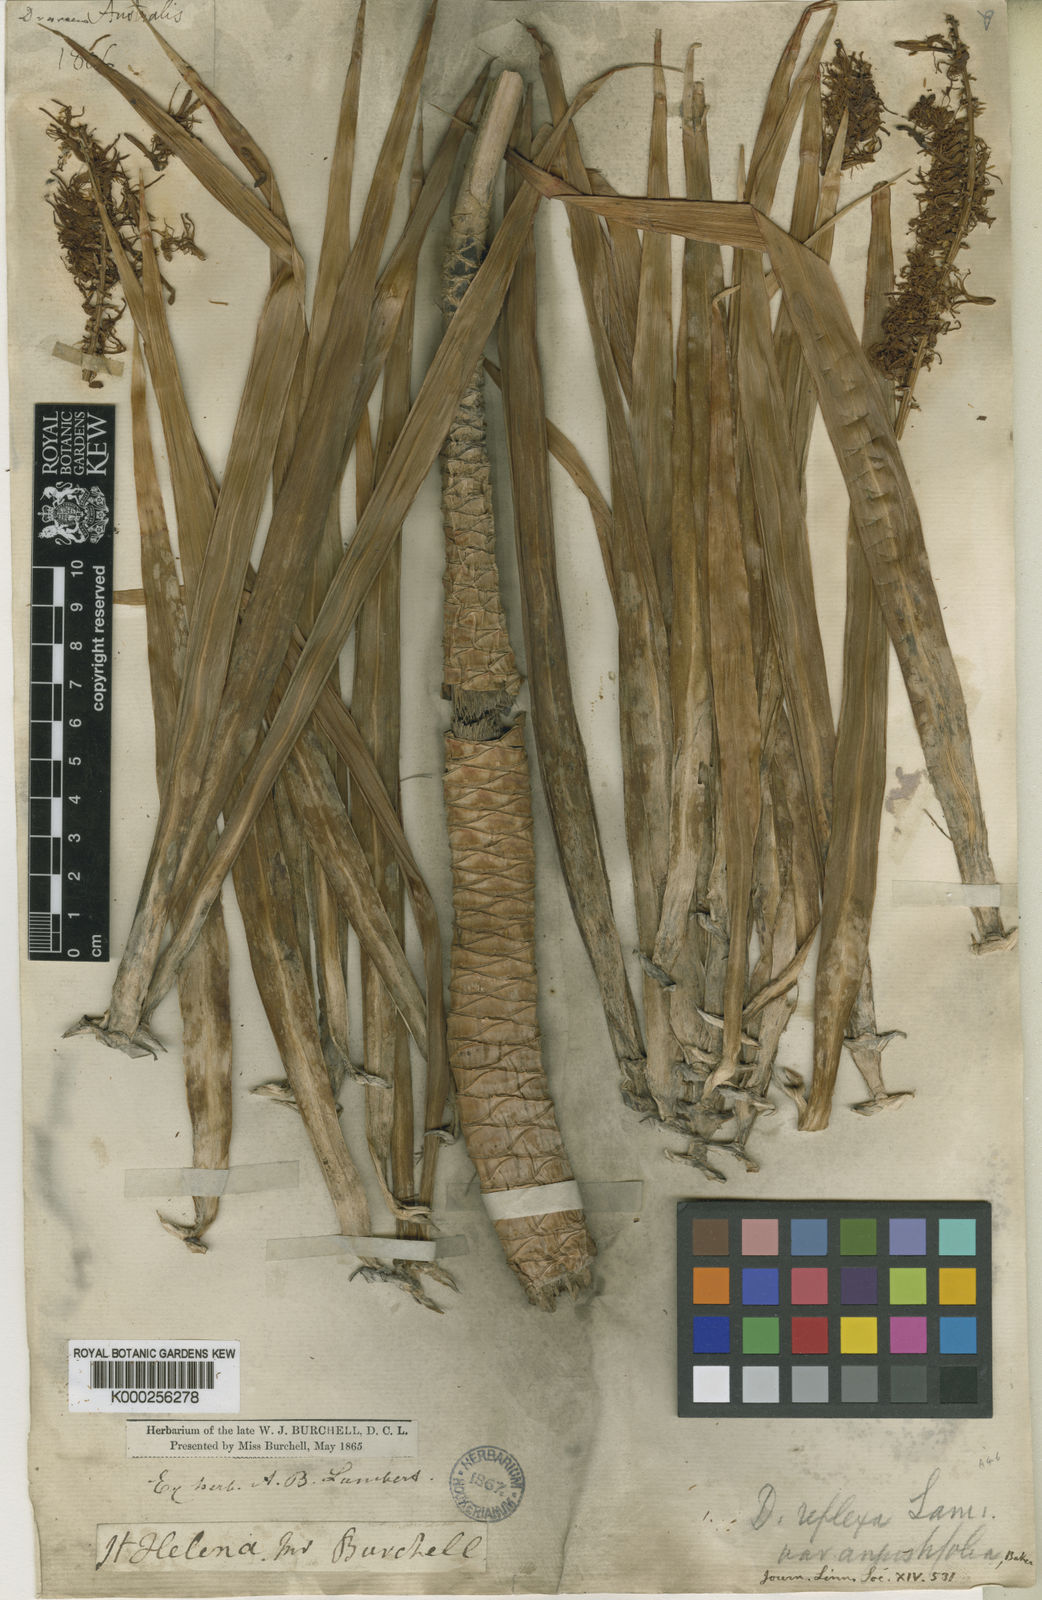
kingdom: Plantae
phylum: Tracheophyta
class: Liliopsida
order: Asparagales
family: Asparagaceae
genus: Dracaena
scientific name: Dracaena reflexa
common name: Song-of-india
